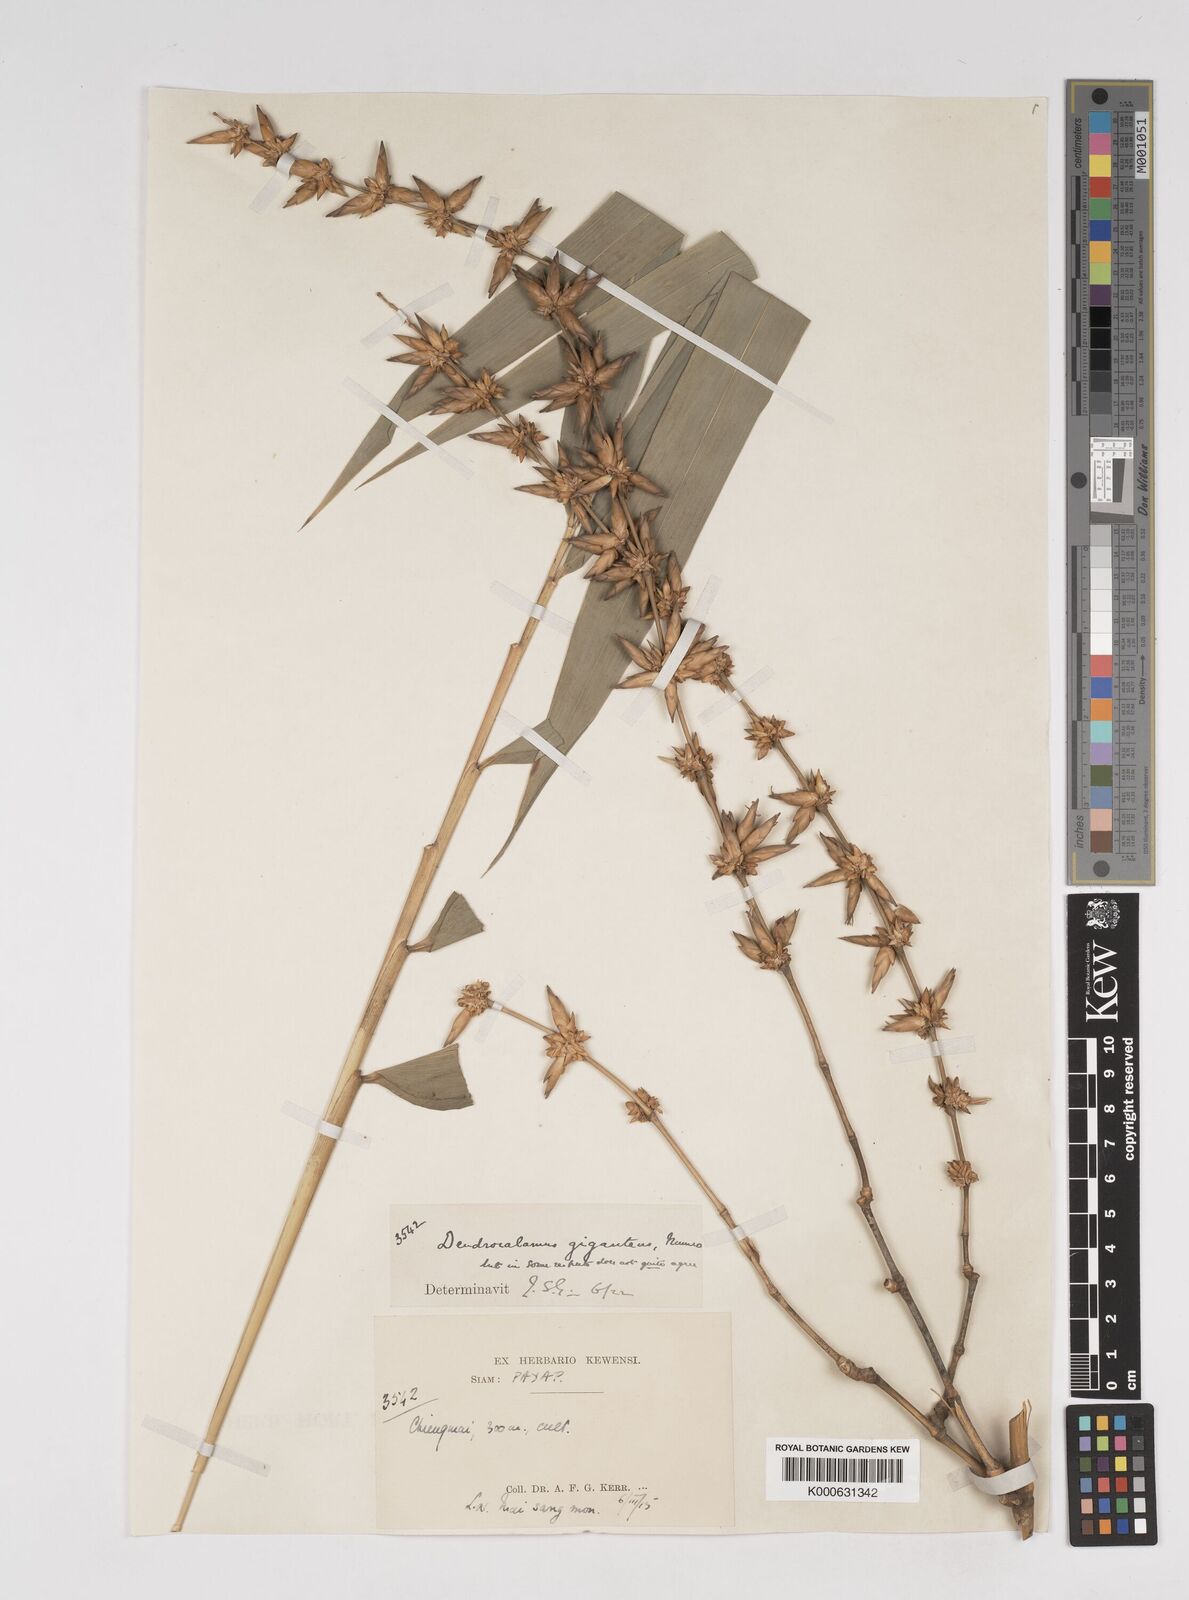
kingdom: Plantae
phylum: Tracheophyta
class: Liliopsida
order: Poales
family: Poaceae
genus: Dendrocalamus
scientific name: Dendrocalamus giganteus
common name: Giant bamboo
